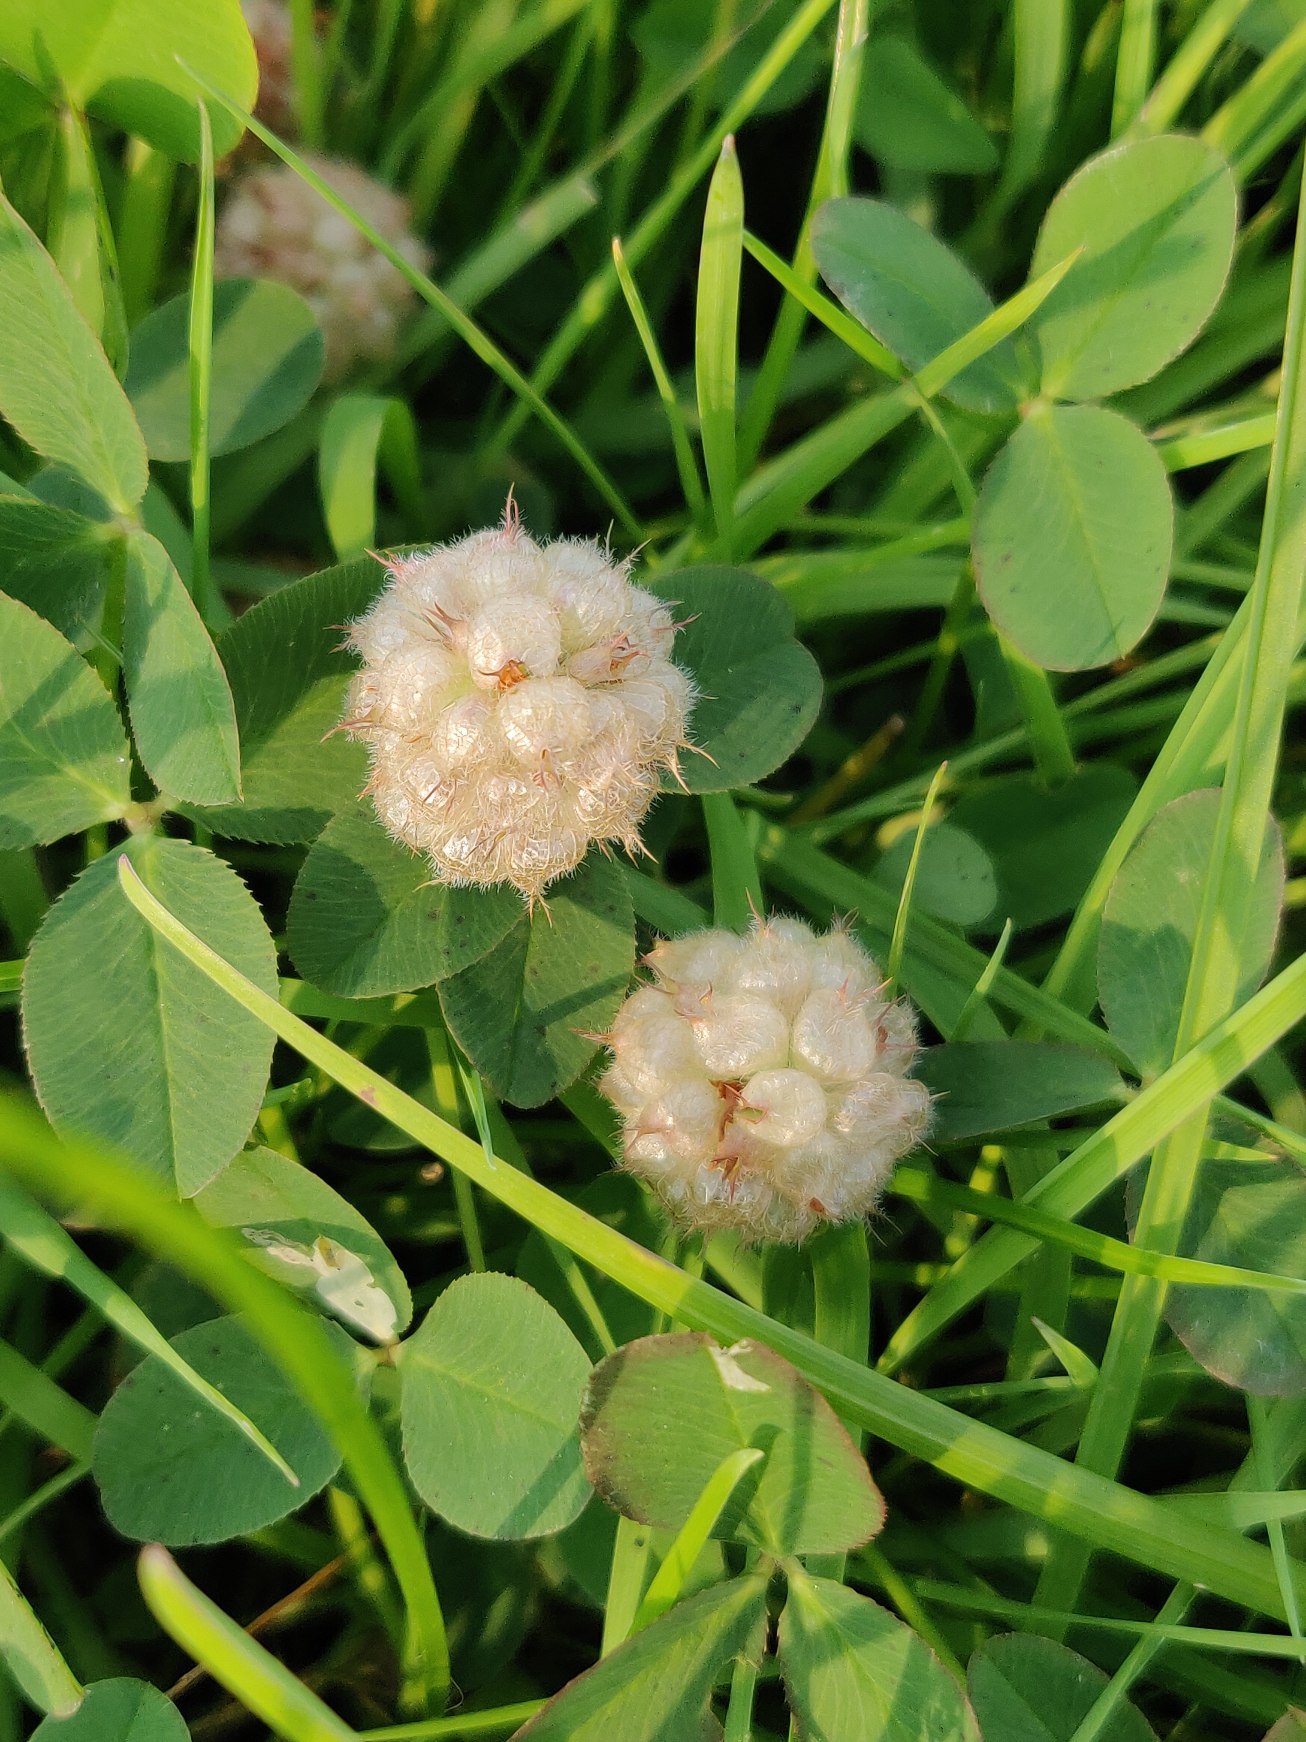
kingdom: Plantae
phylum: Tracheophyta
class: Magnoliopsida
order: Fabales
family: Fabaceae
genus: Trifolium
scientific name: Trifolium fragiferum
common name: Jordbær-kløver
